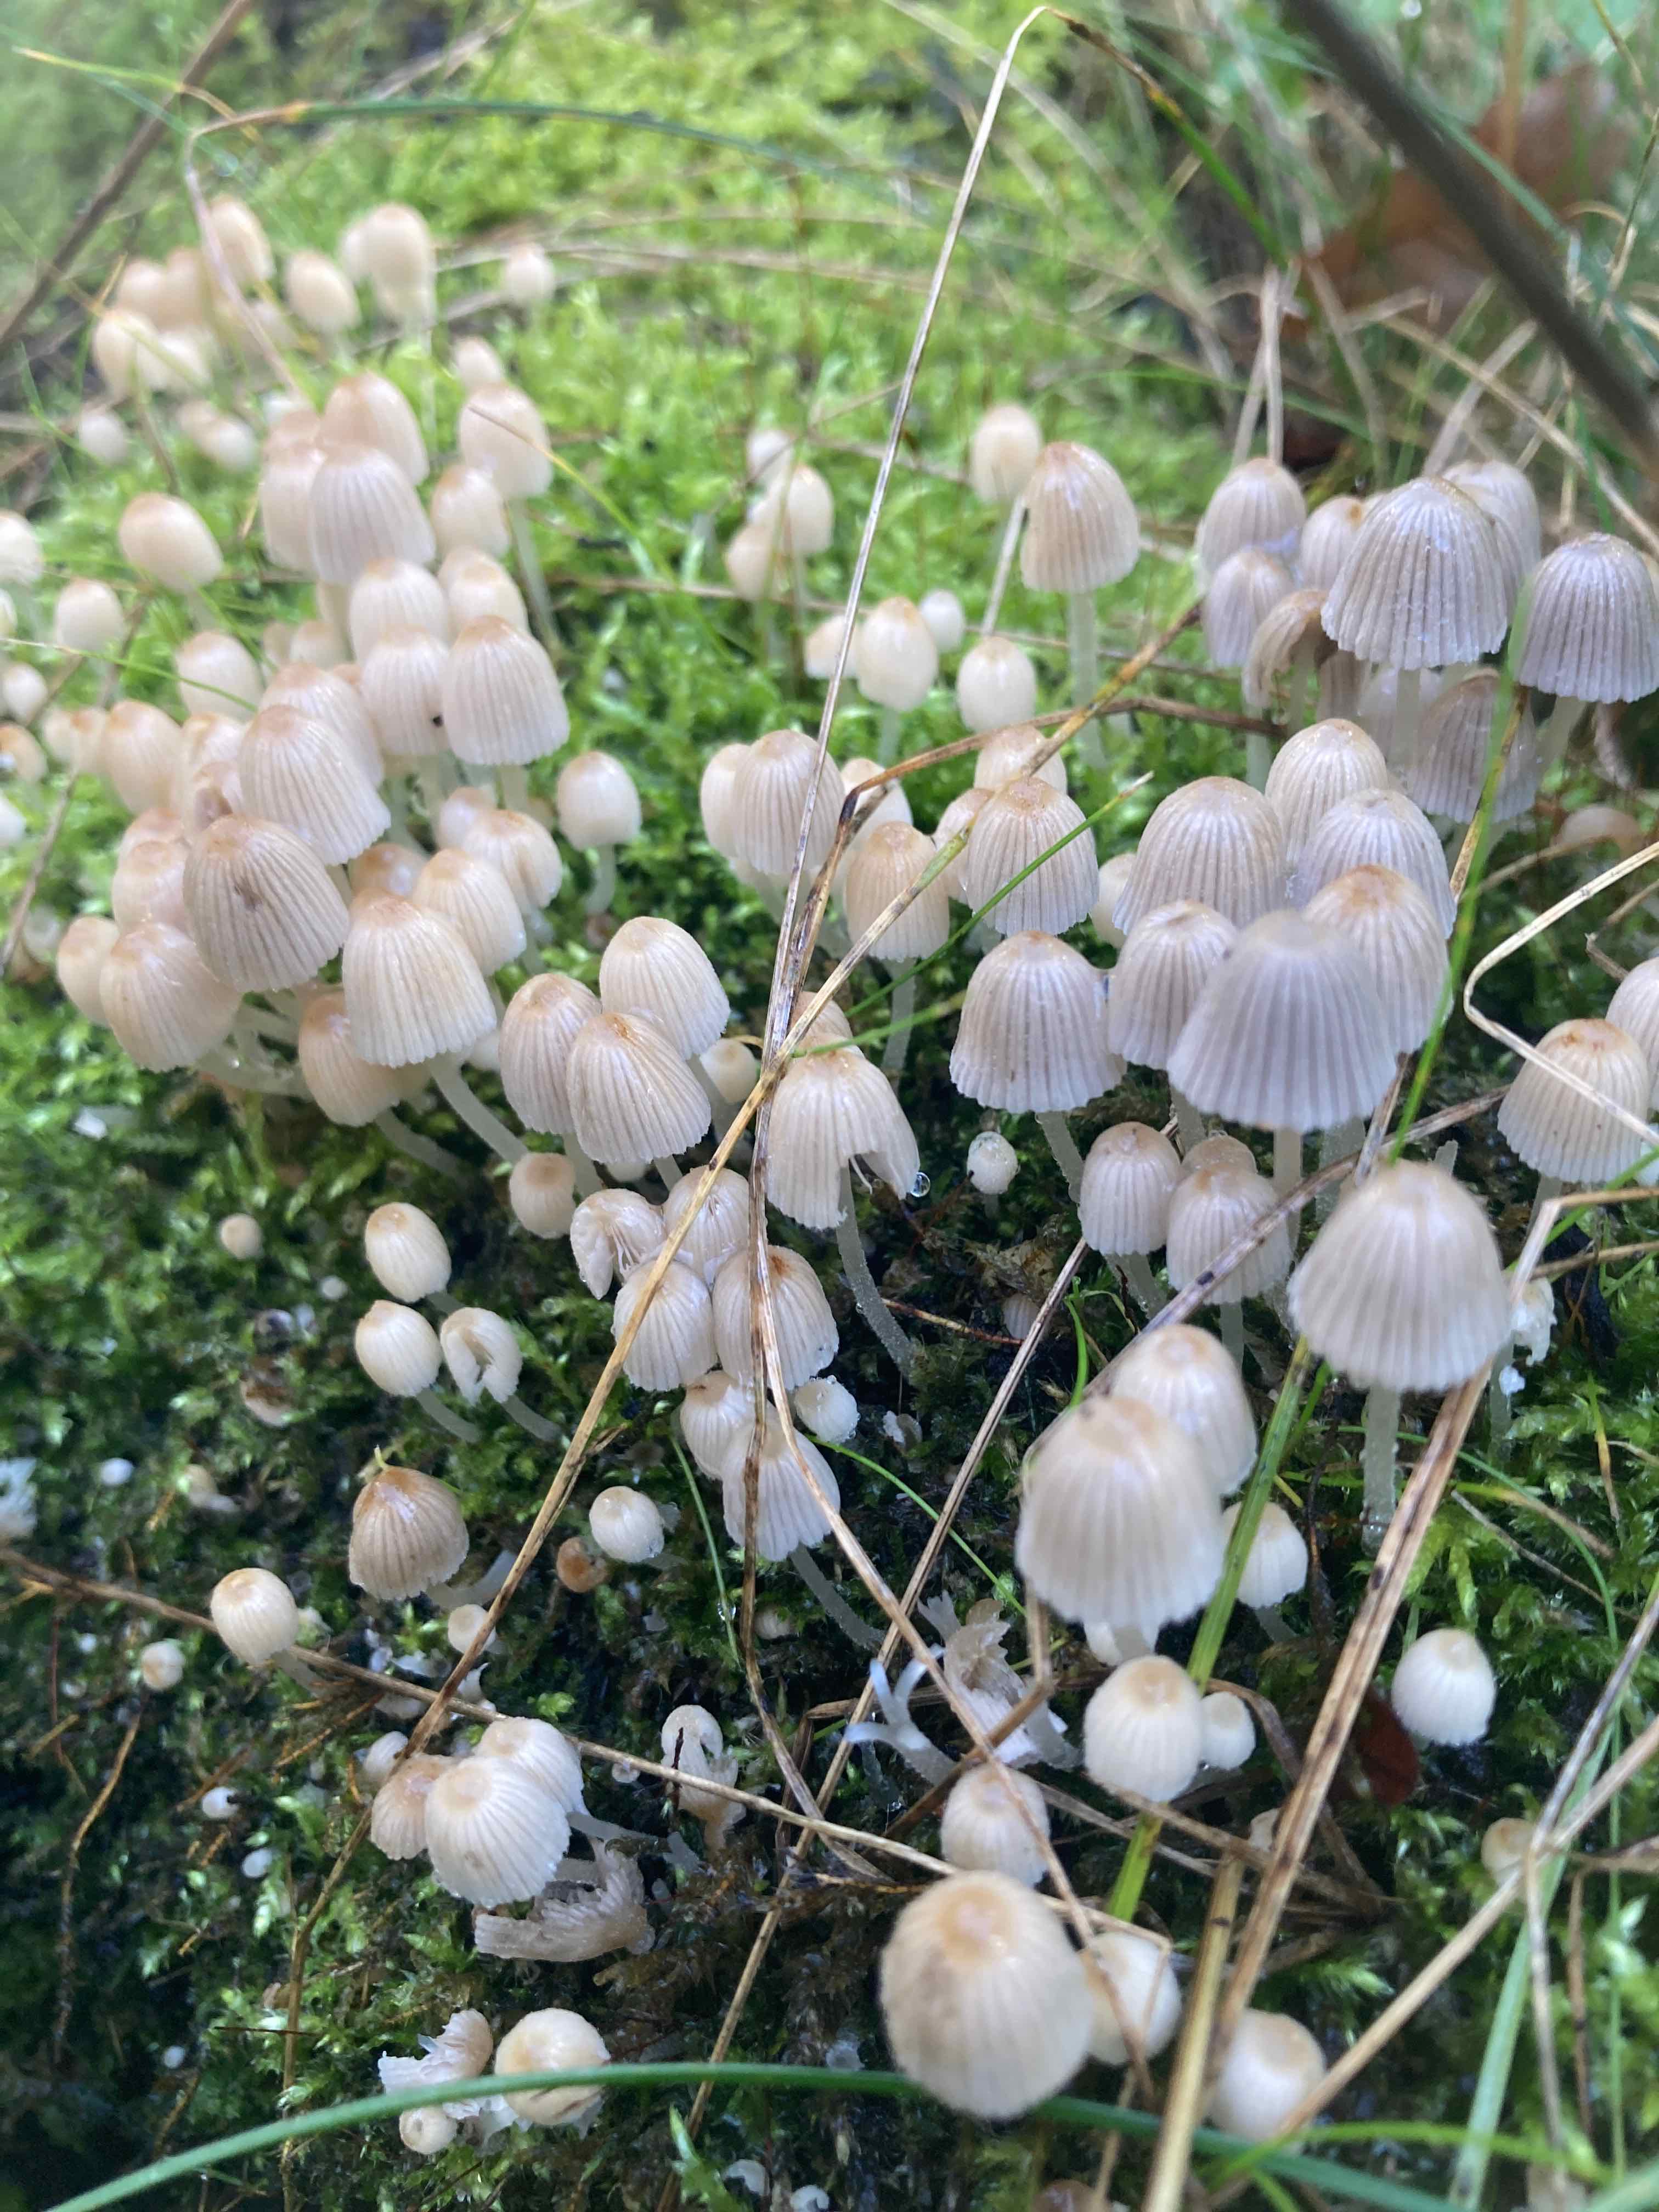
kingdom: Fungi
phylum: Basidiomycota
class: Agaricomycetes
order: Agaricales
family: Psathyrellaceae
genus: Coprinellus
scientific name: Coprinellus disseminatus
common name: bredsået blækhat
